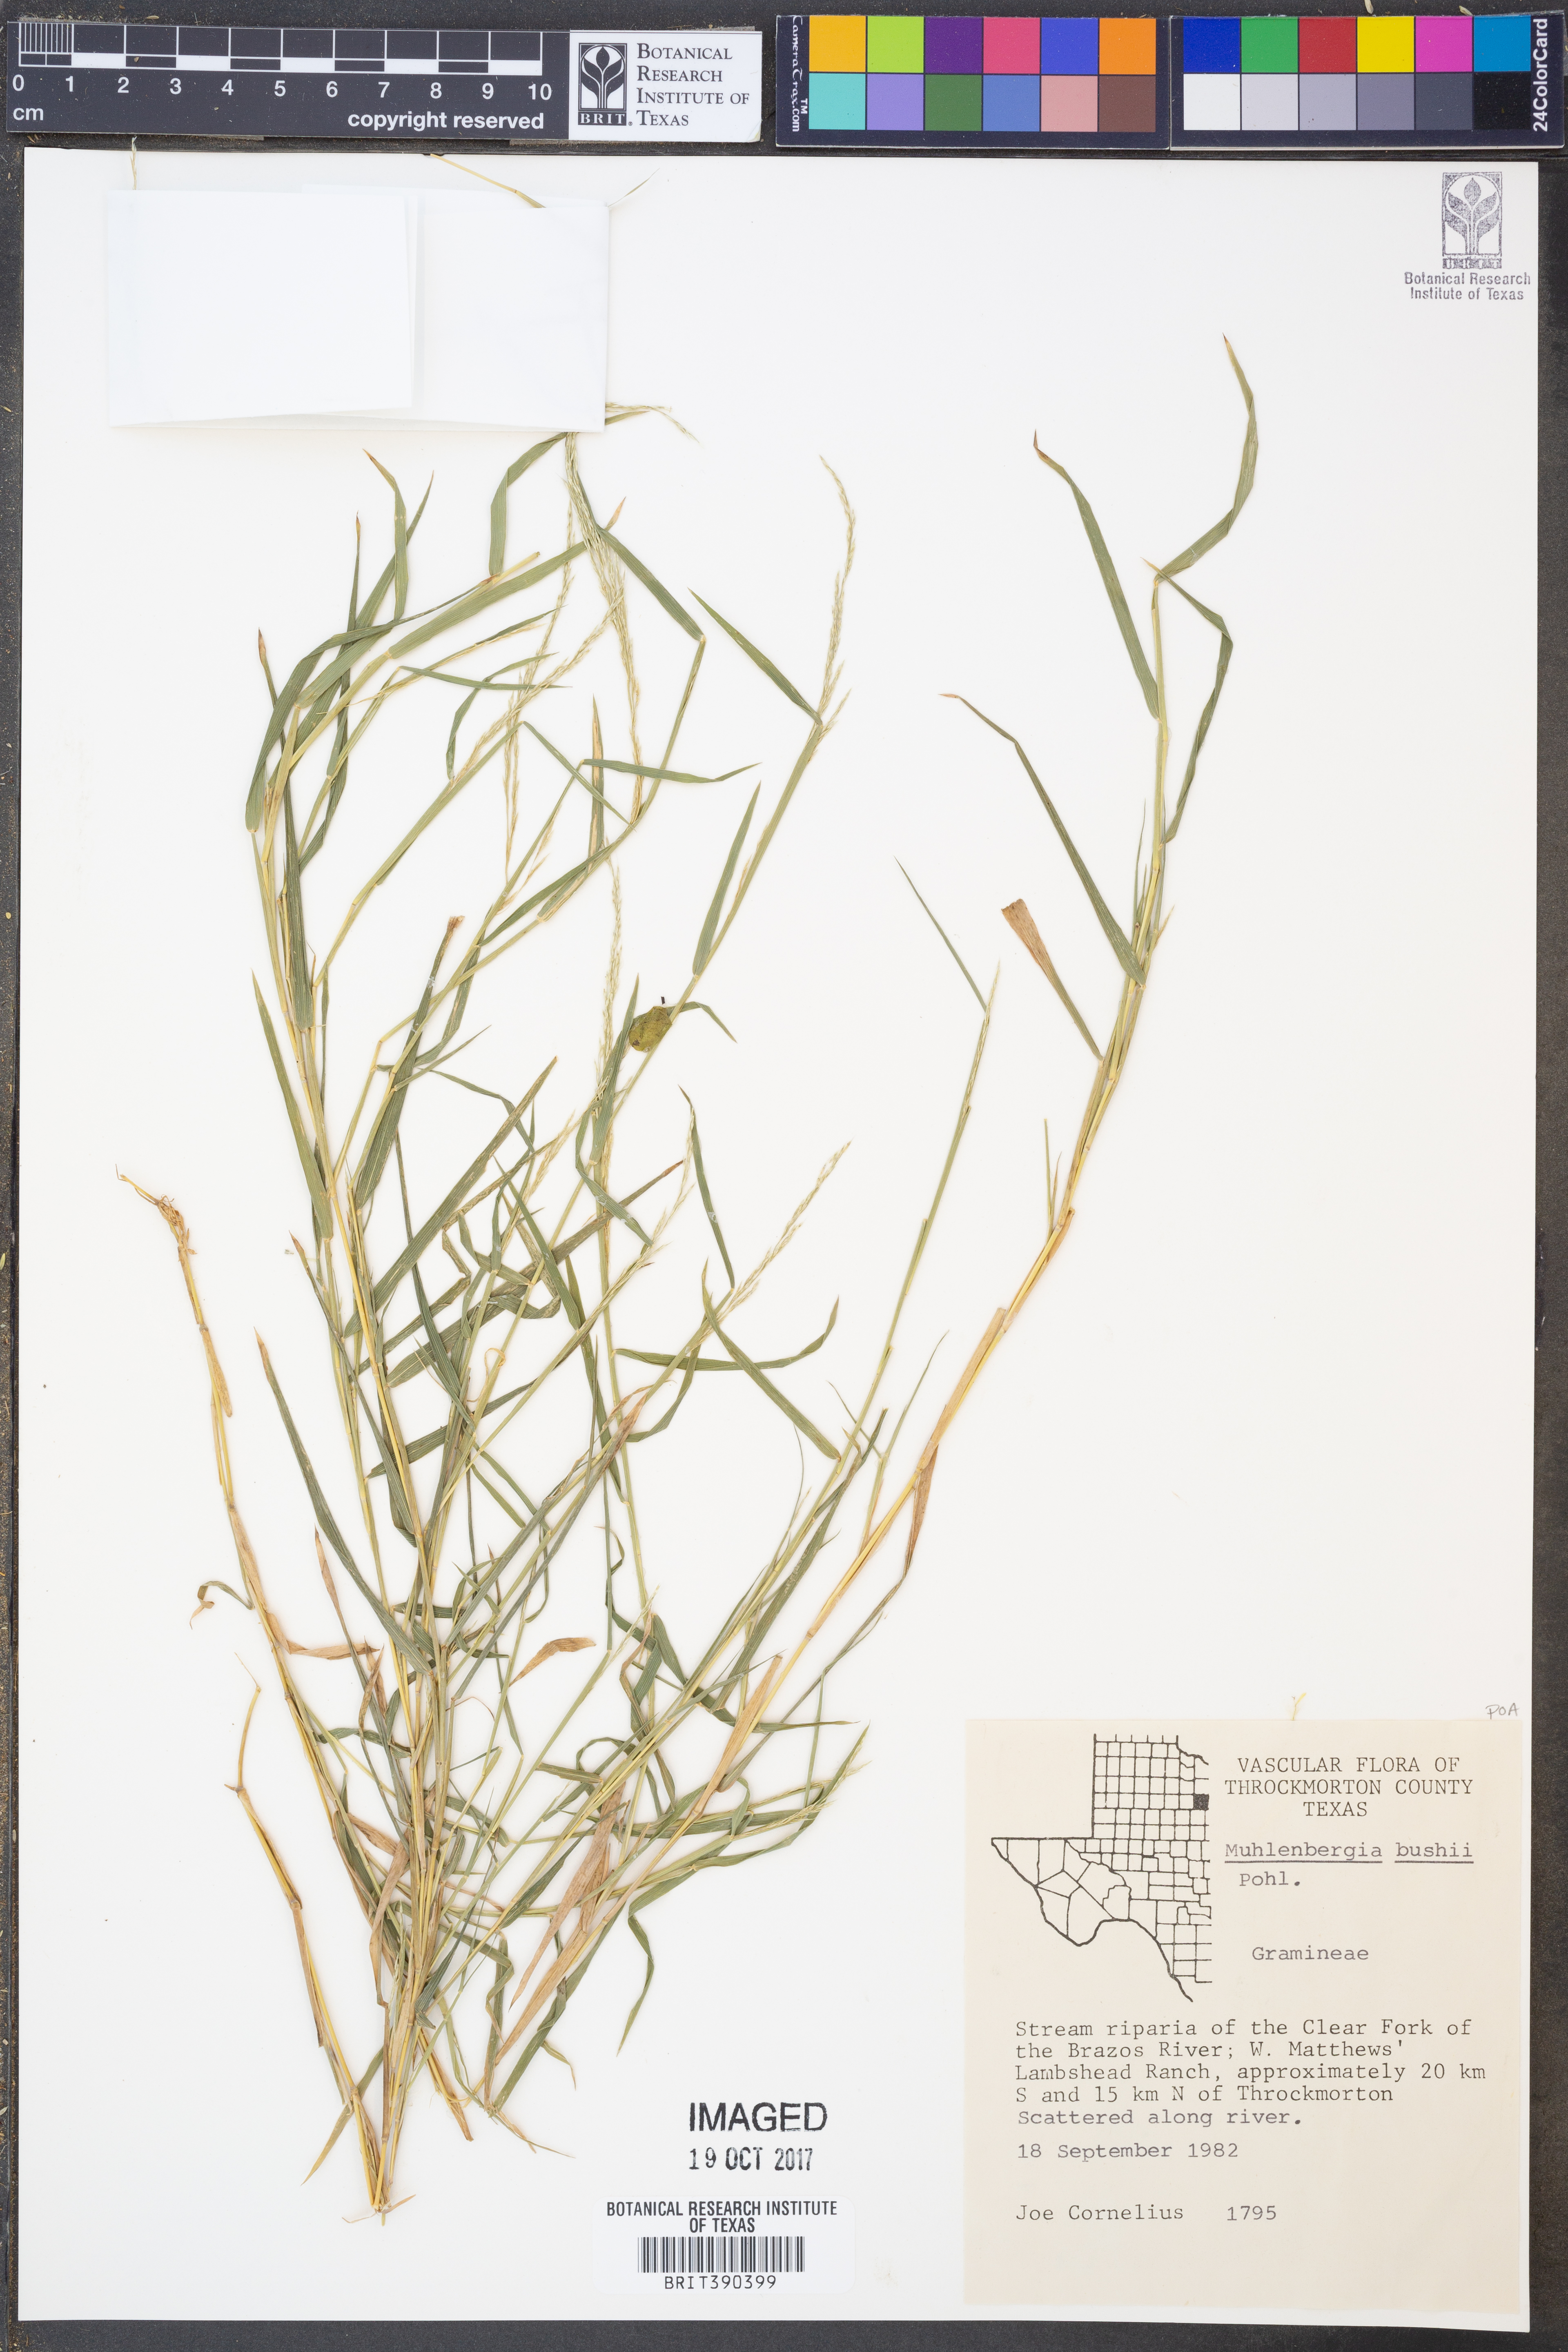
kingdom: Plantae
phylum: Tracheophyta
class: Liliopsida
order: Poales
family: Poaceae
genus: Muhlenbergia
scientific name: Muhlenbergia bushii
